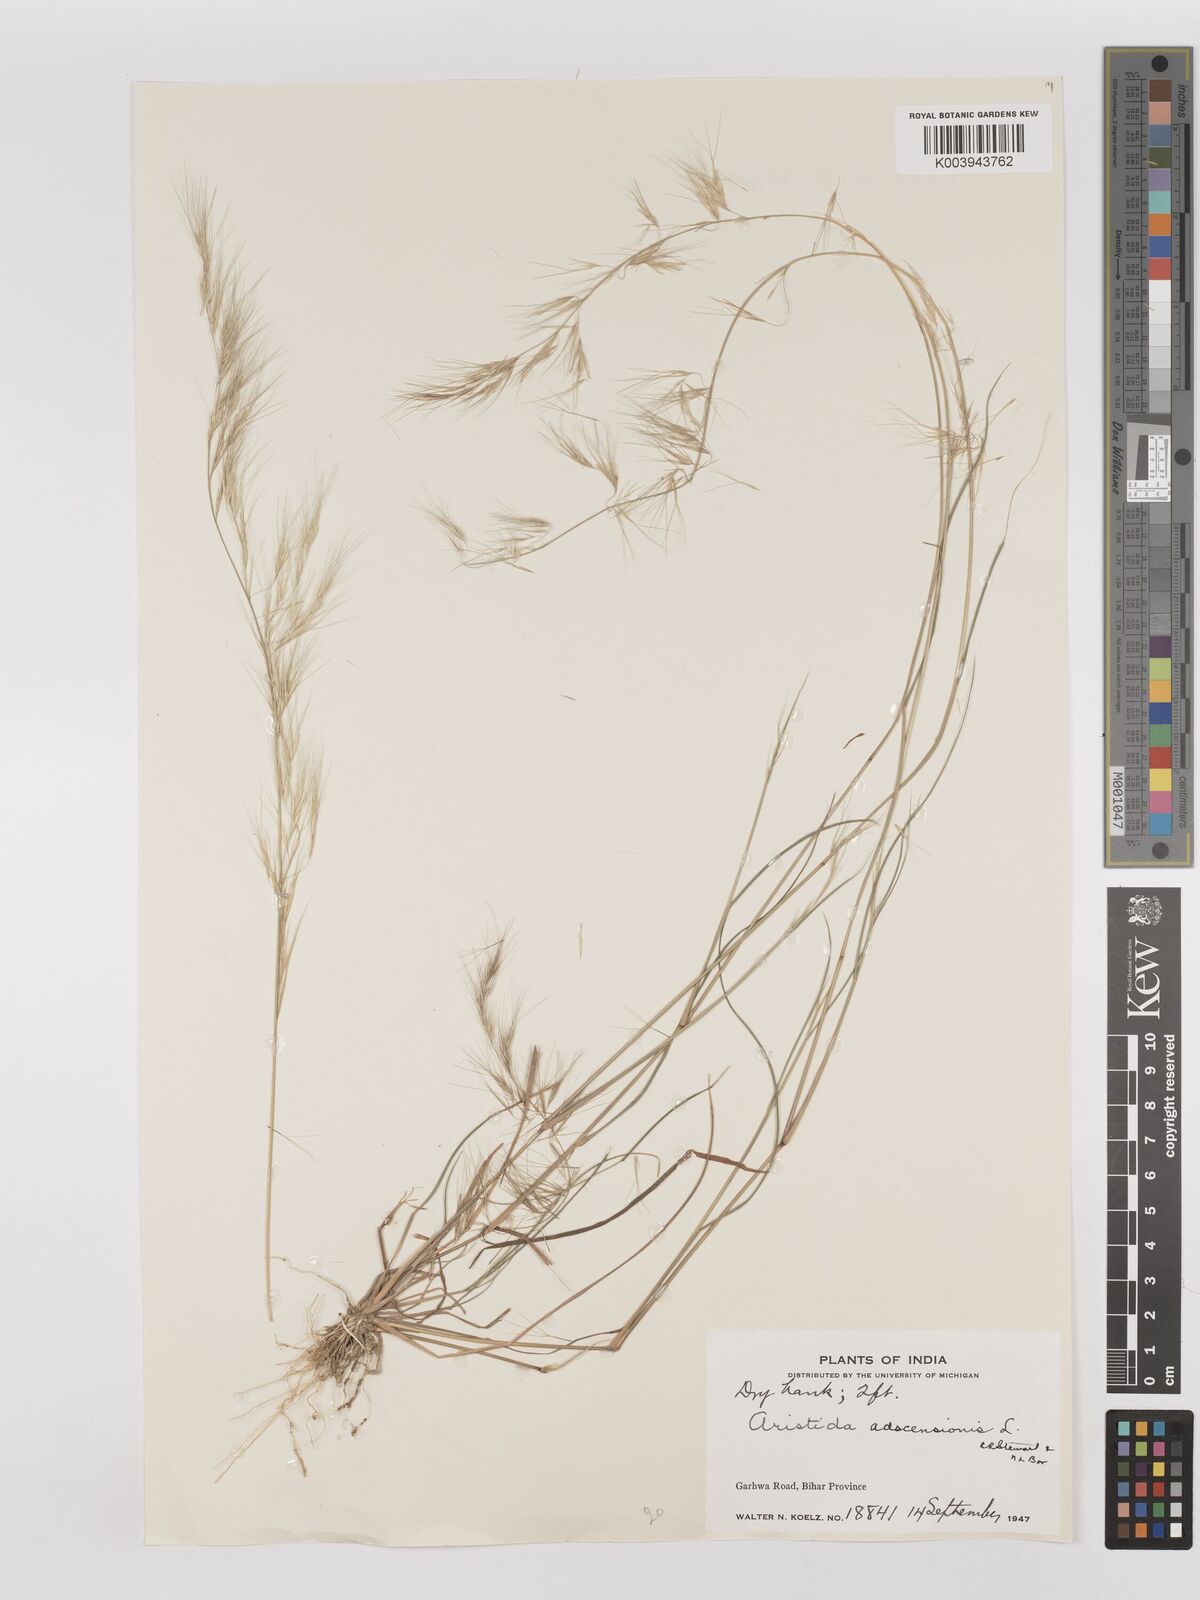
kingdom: Plantae
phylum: Tracheophyta
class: Liliopsida
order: Poales
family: Poaceae
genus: Aristida
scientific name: Aristida adscensionis
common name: Sixweeks threeawn
